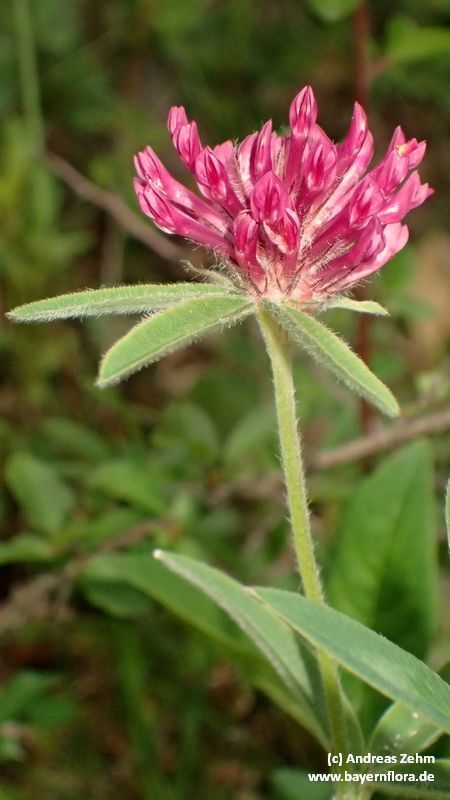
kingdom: Plantae
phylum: Tracheophyta
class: Magnoliopsida
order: Fabales
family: Fabaceae
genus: Trifolium
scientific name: Trifolium alpestre
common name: Owl-head clover
